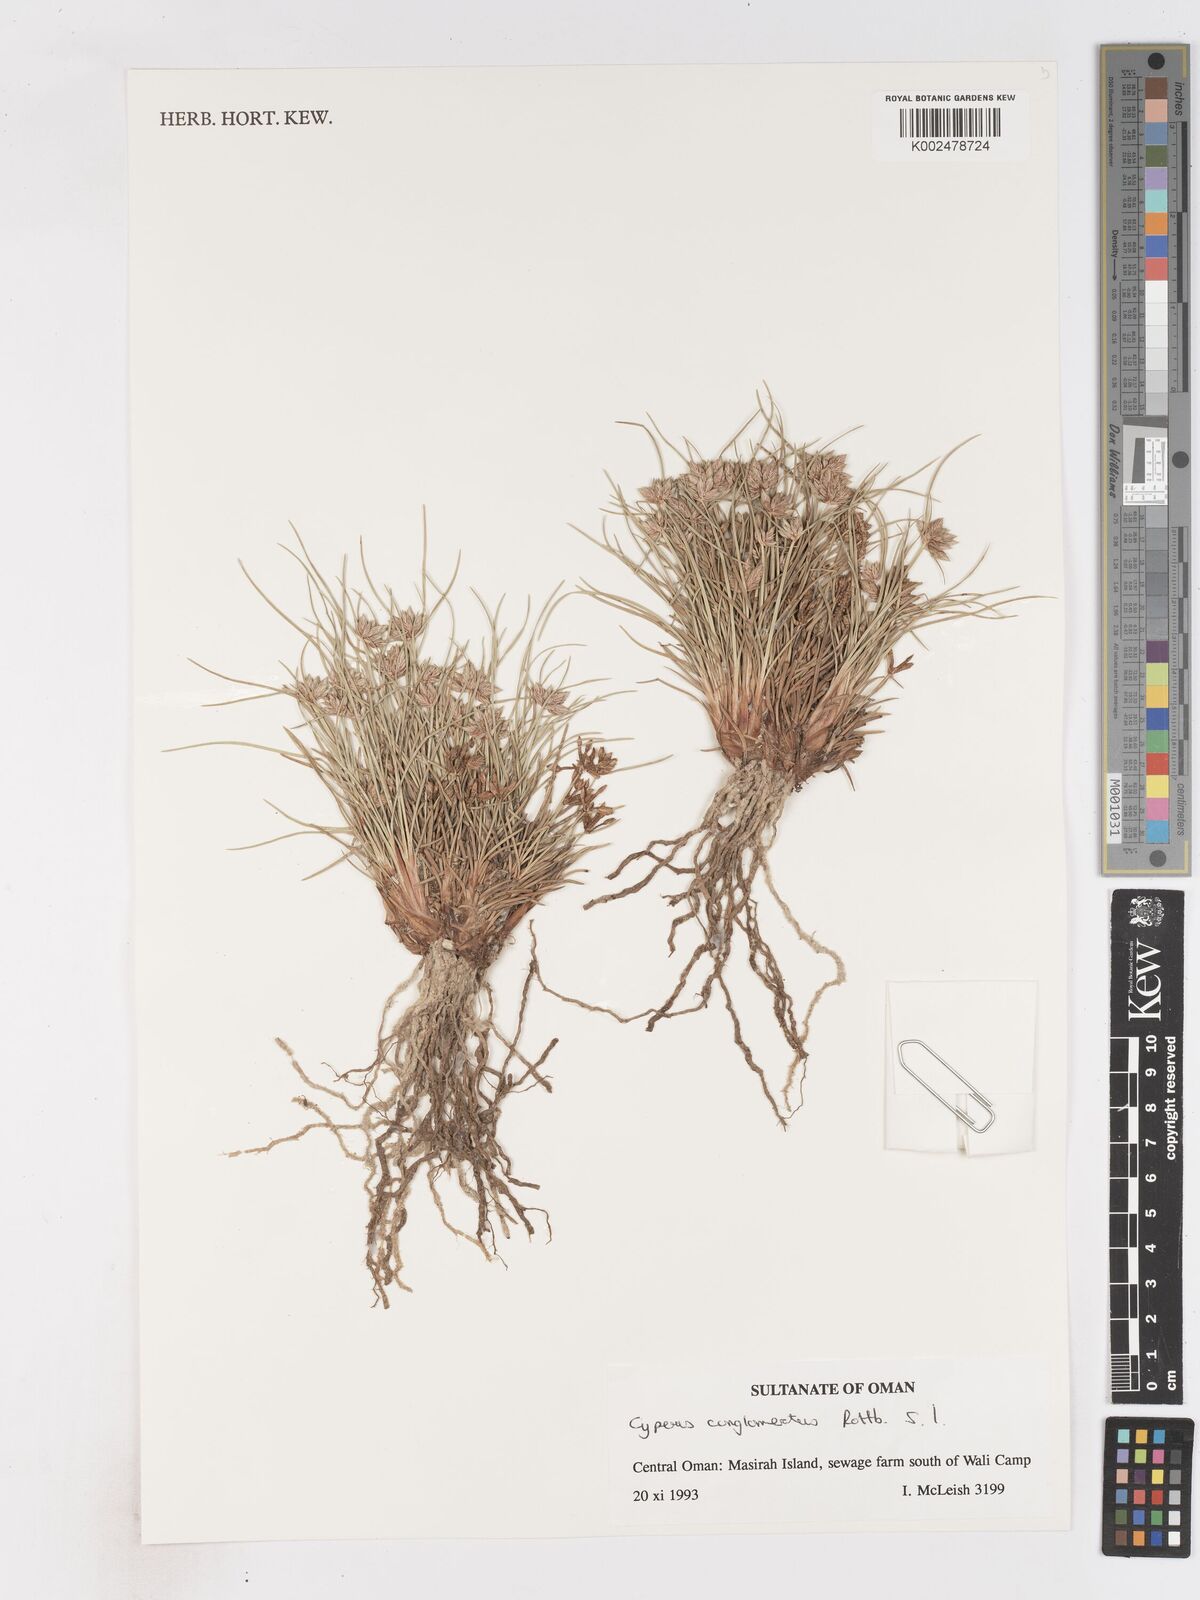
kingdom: Plantae
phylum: Tracheophyta
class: Liliopsida
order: Poales
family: Cyperaceae
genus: Cyperus
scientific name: Cyperus conglomeratus
